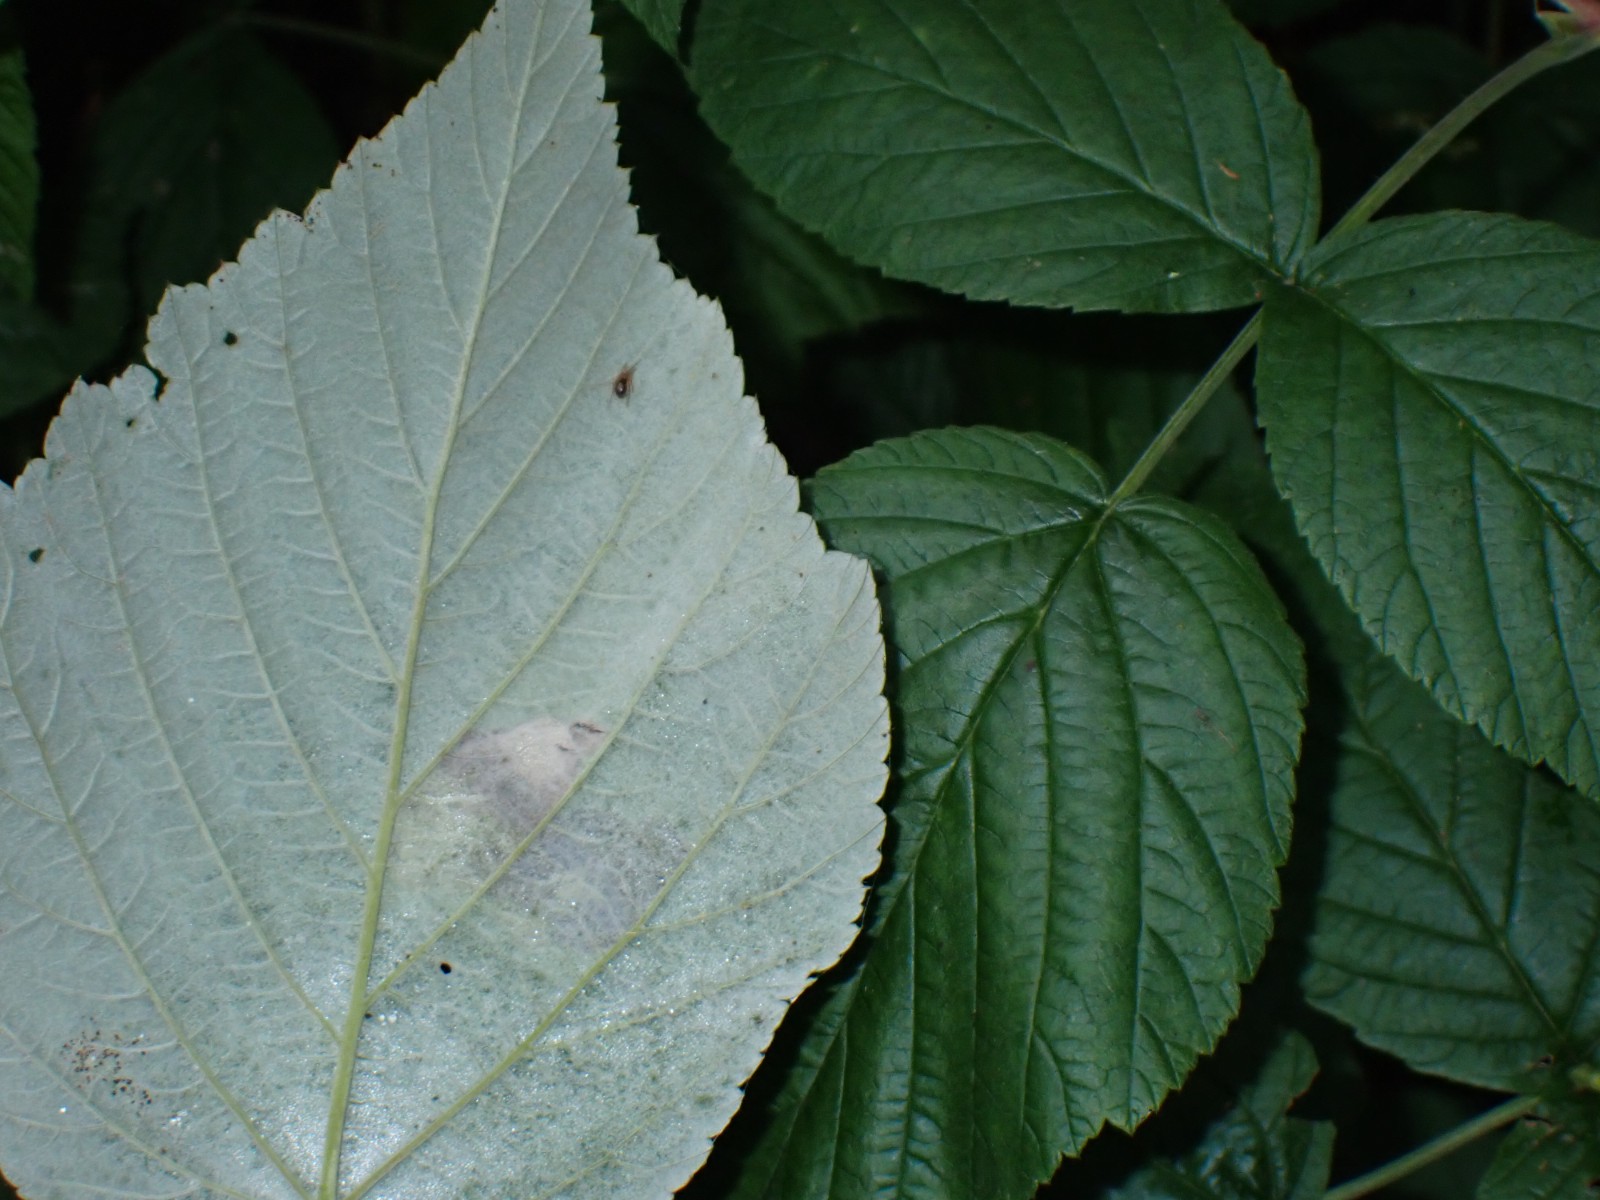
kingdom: Fungi
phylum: Basidiomycota
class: Pucciniomycetes
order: Pucciniales
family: Phragmidiaceae
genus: Phragmidium
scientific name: Phragmidium rubi-idaei
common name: hindbær-flercellerust
